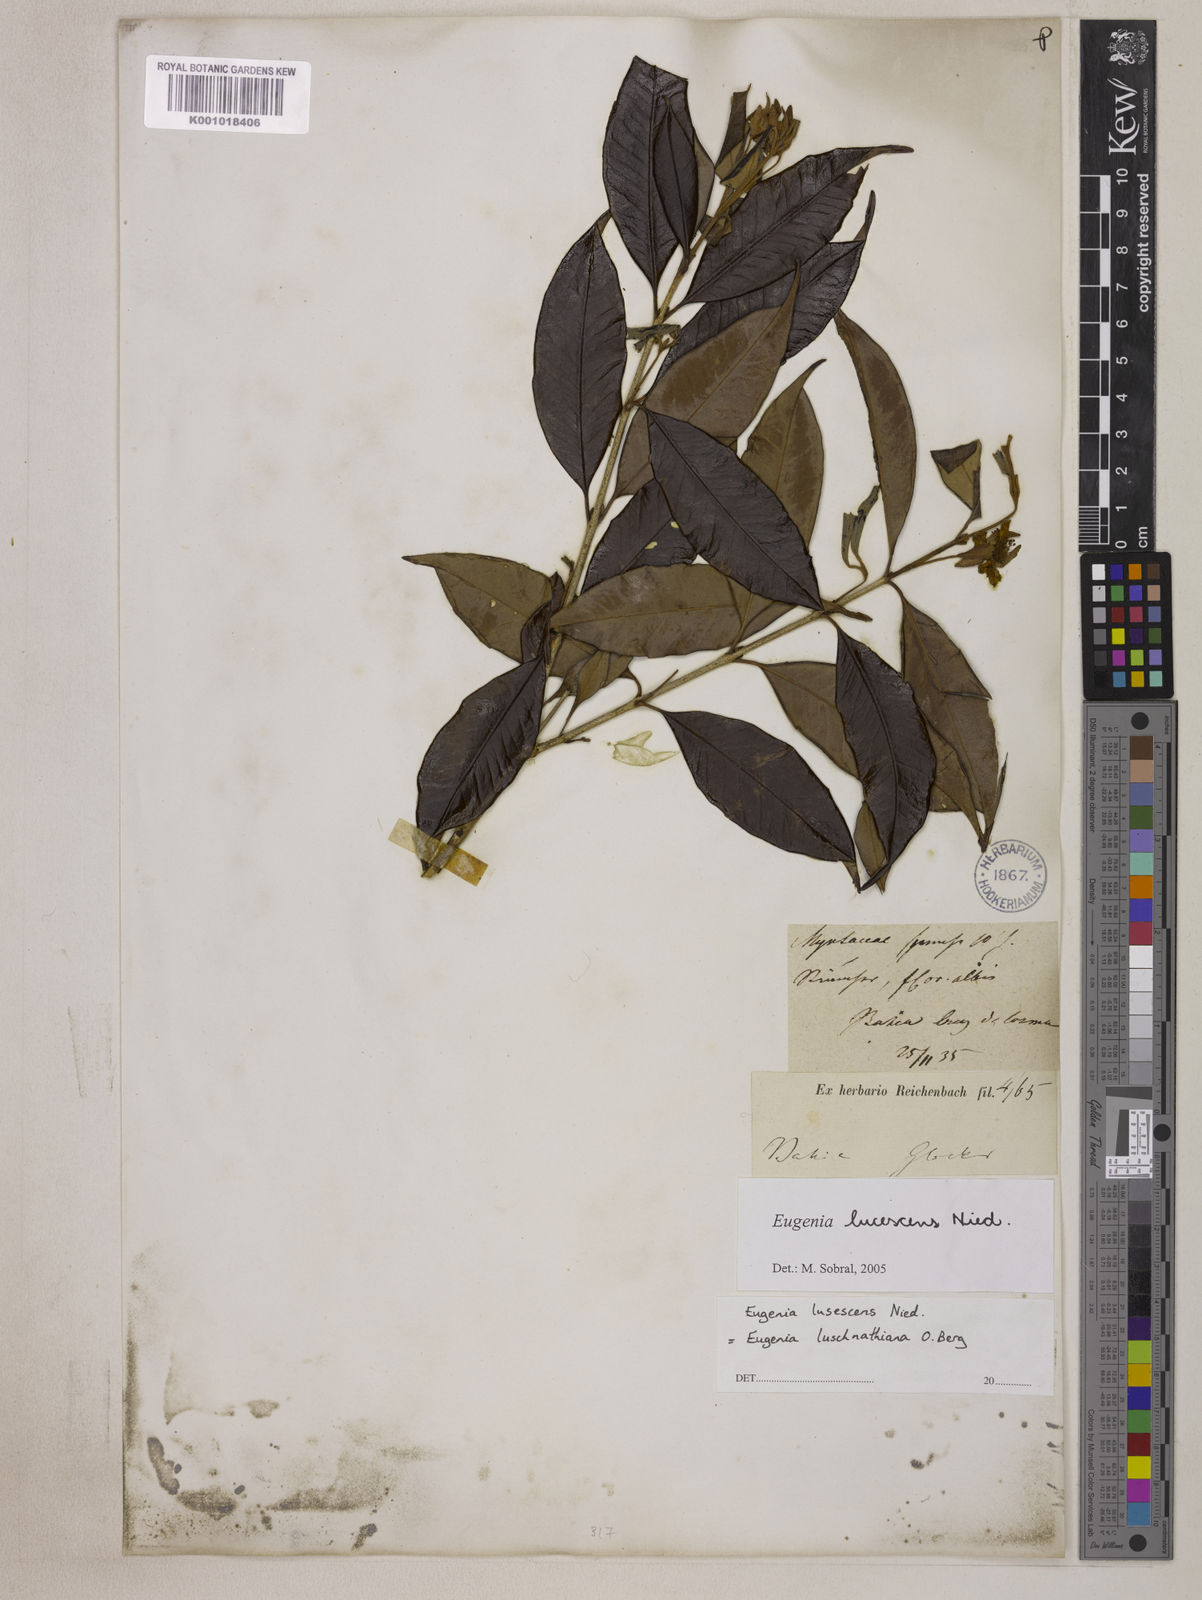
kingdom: Plantae
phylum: Tracheophyta
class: Magnoliopsida
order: Myrtales
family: Myrtaceae
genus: Eugenia
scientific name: Eugenia
